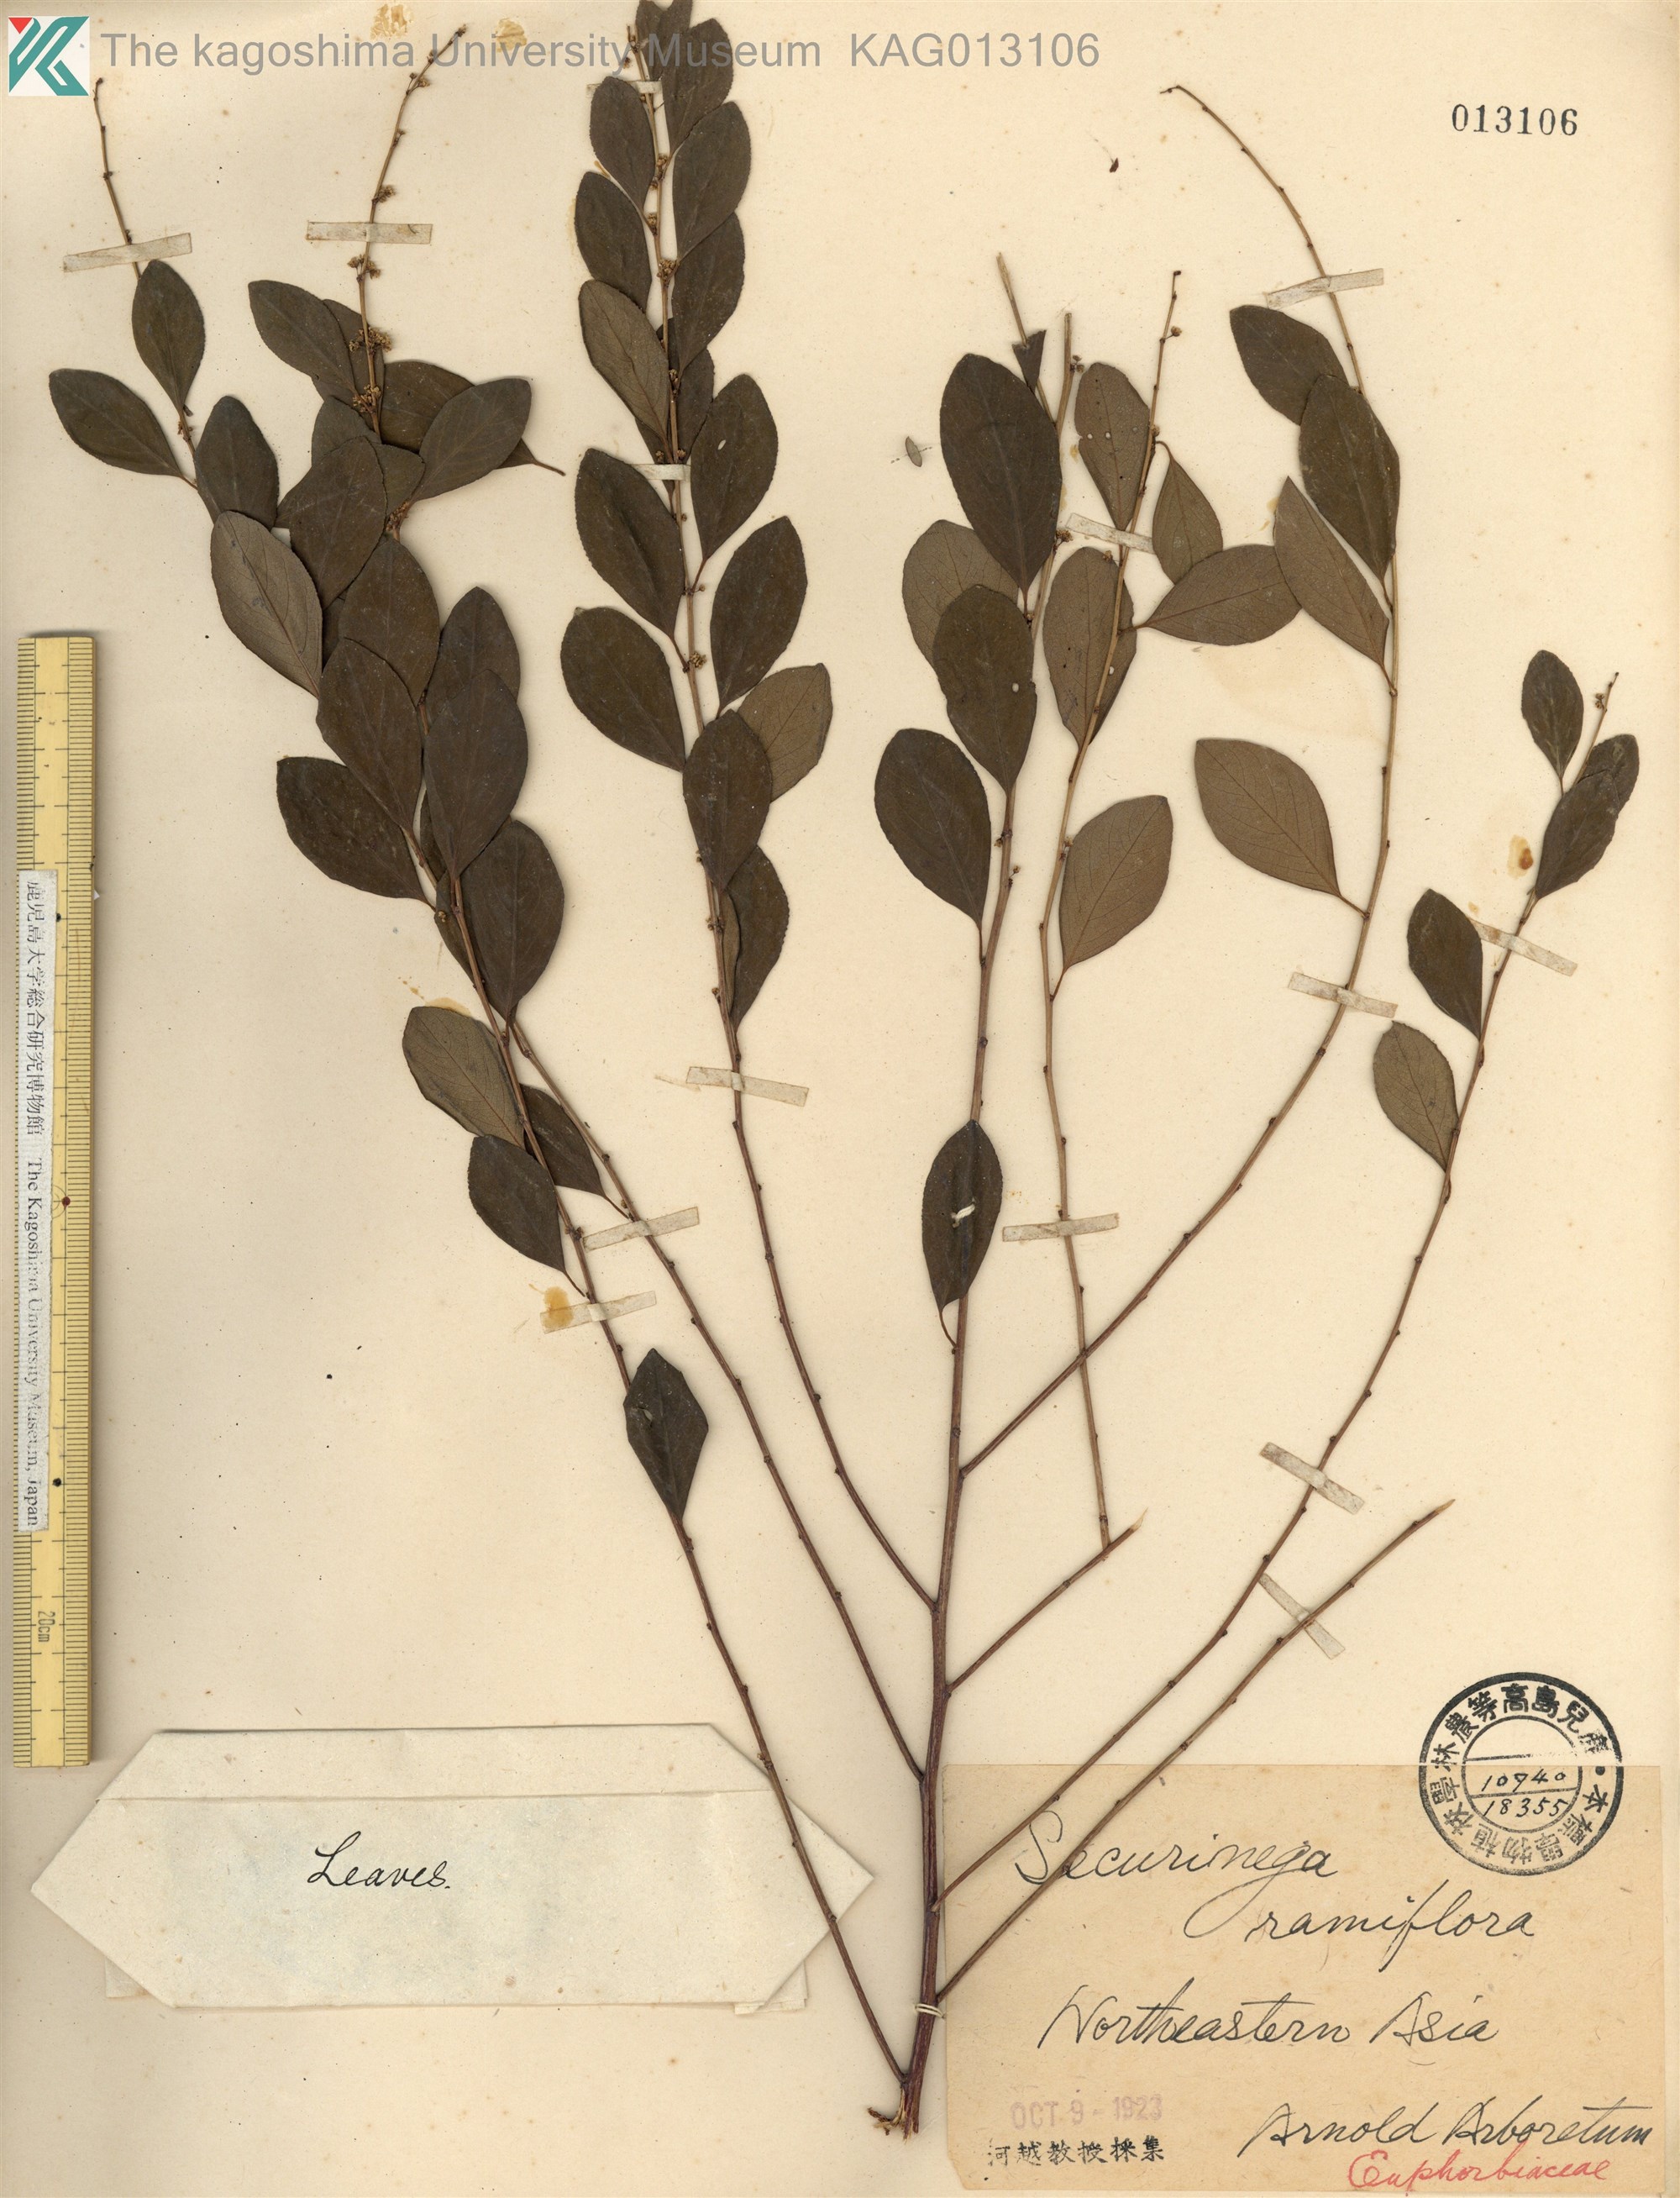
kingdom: Plantae
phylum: Tracheophyta
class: Magnoliopsida
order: Malpighiales
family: Phyllanthaceae
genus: Flueggea
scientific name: Flueggea suffruticosa
